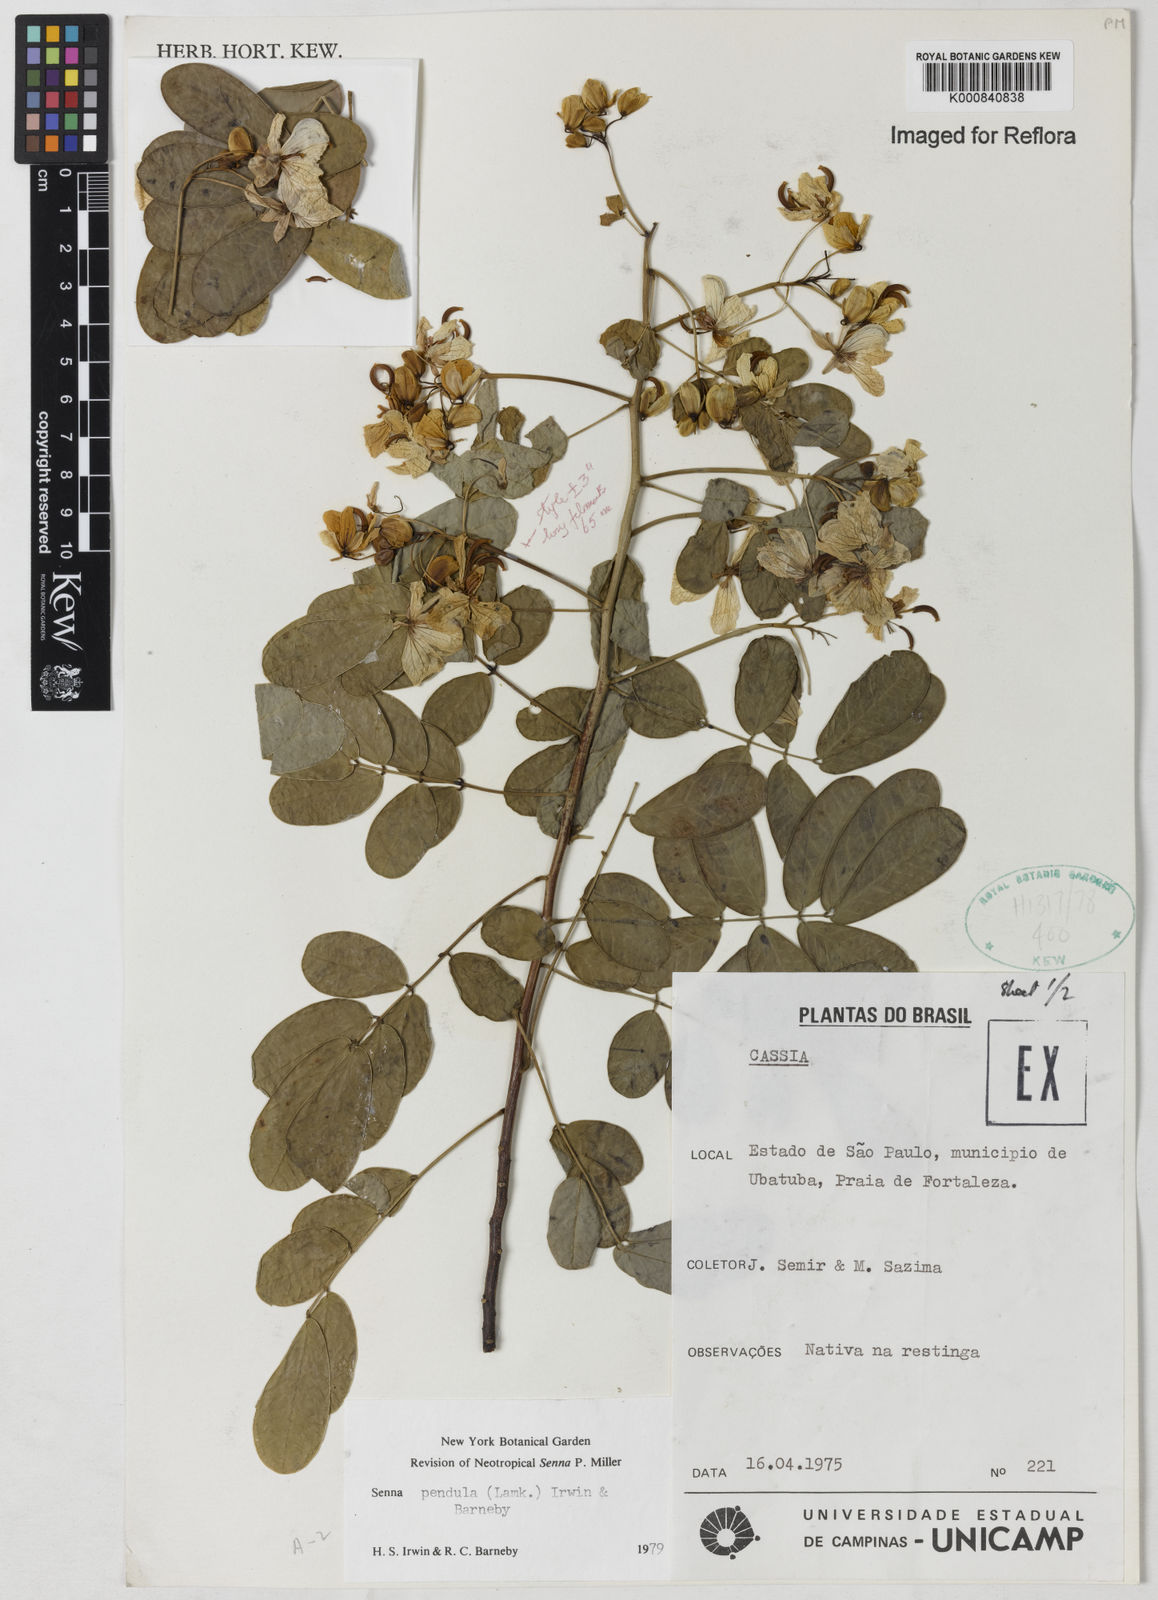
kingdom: Plantae
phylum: Tracheophyta
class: Magnoliopsida
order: Fabales
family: Fabaceae
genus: Senna
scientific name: Senna pendula
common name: Easter cassia
